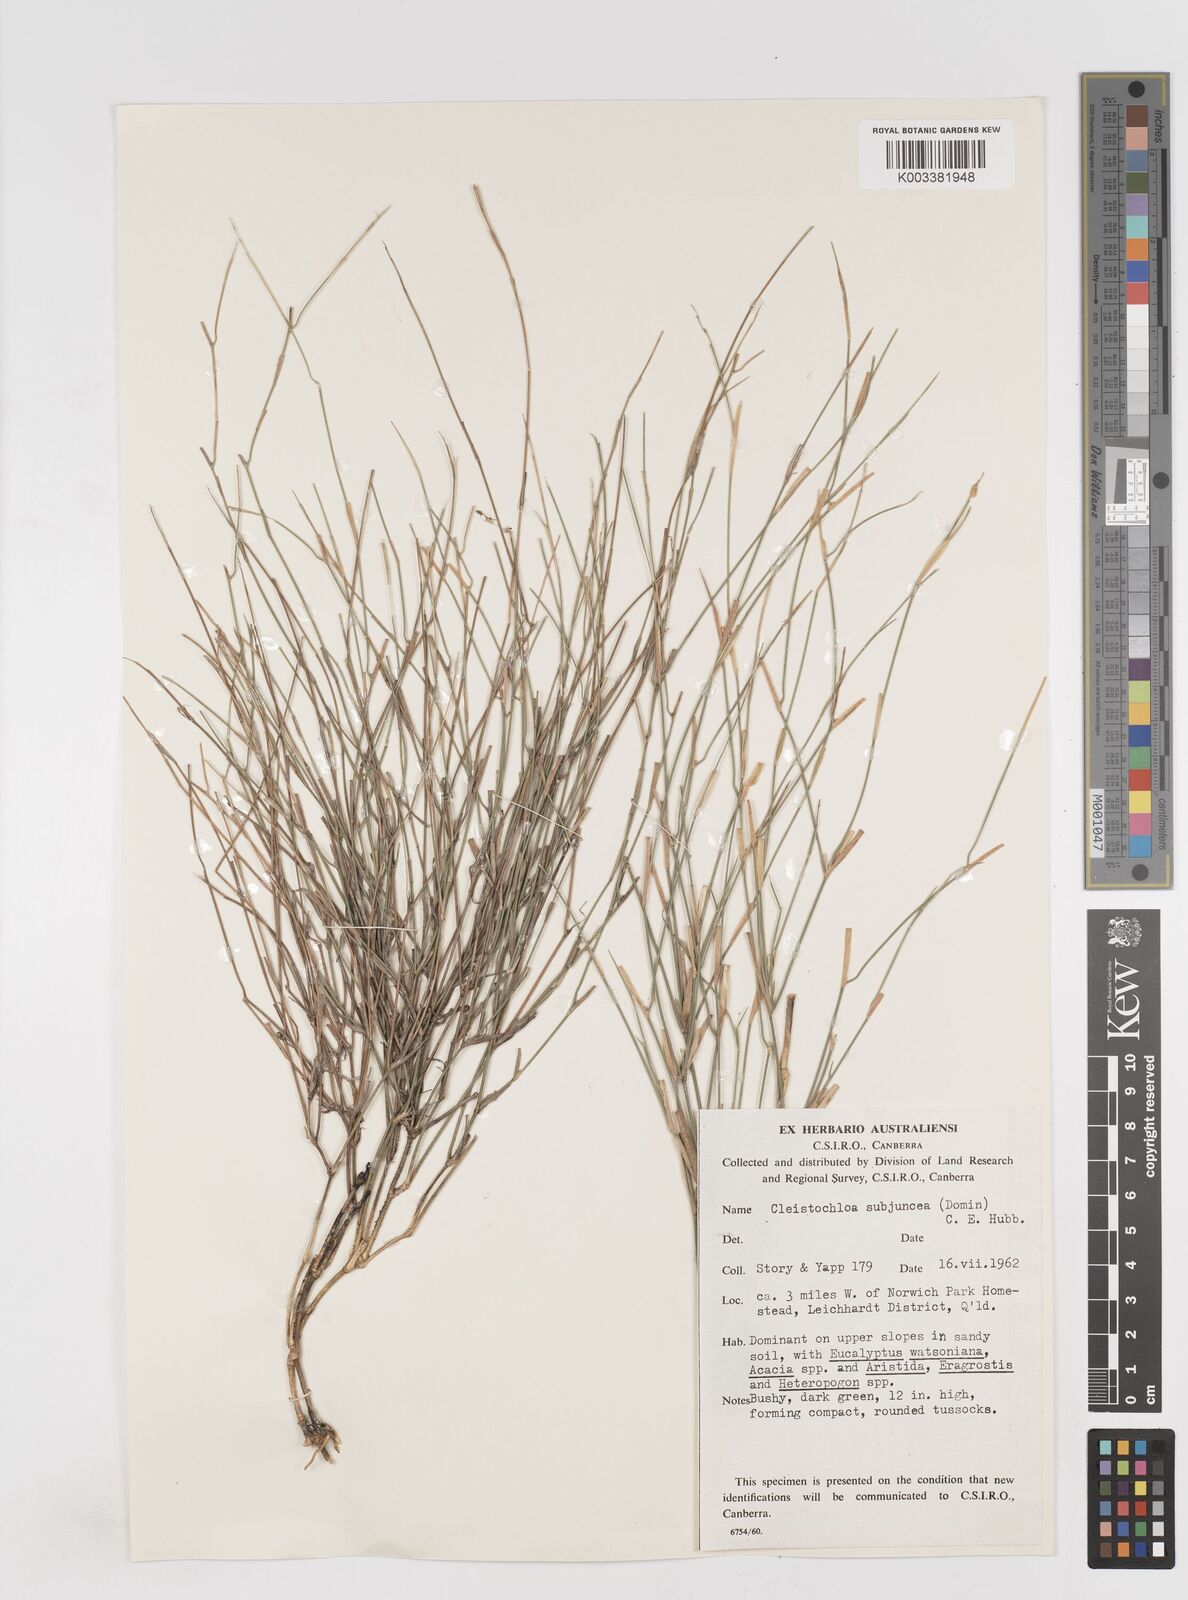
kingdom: Plantae
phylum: Tracheophyta
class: Liliopsida
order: Poales
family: Poaceae
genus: Cleistochloa
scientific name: Cleistochloa subjuncea
